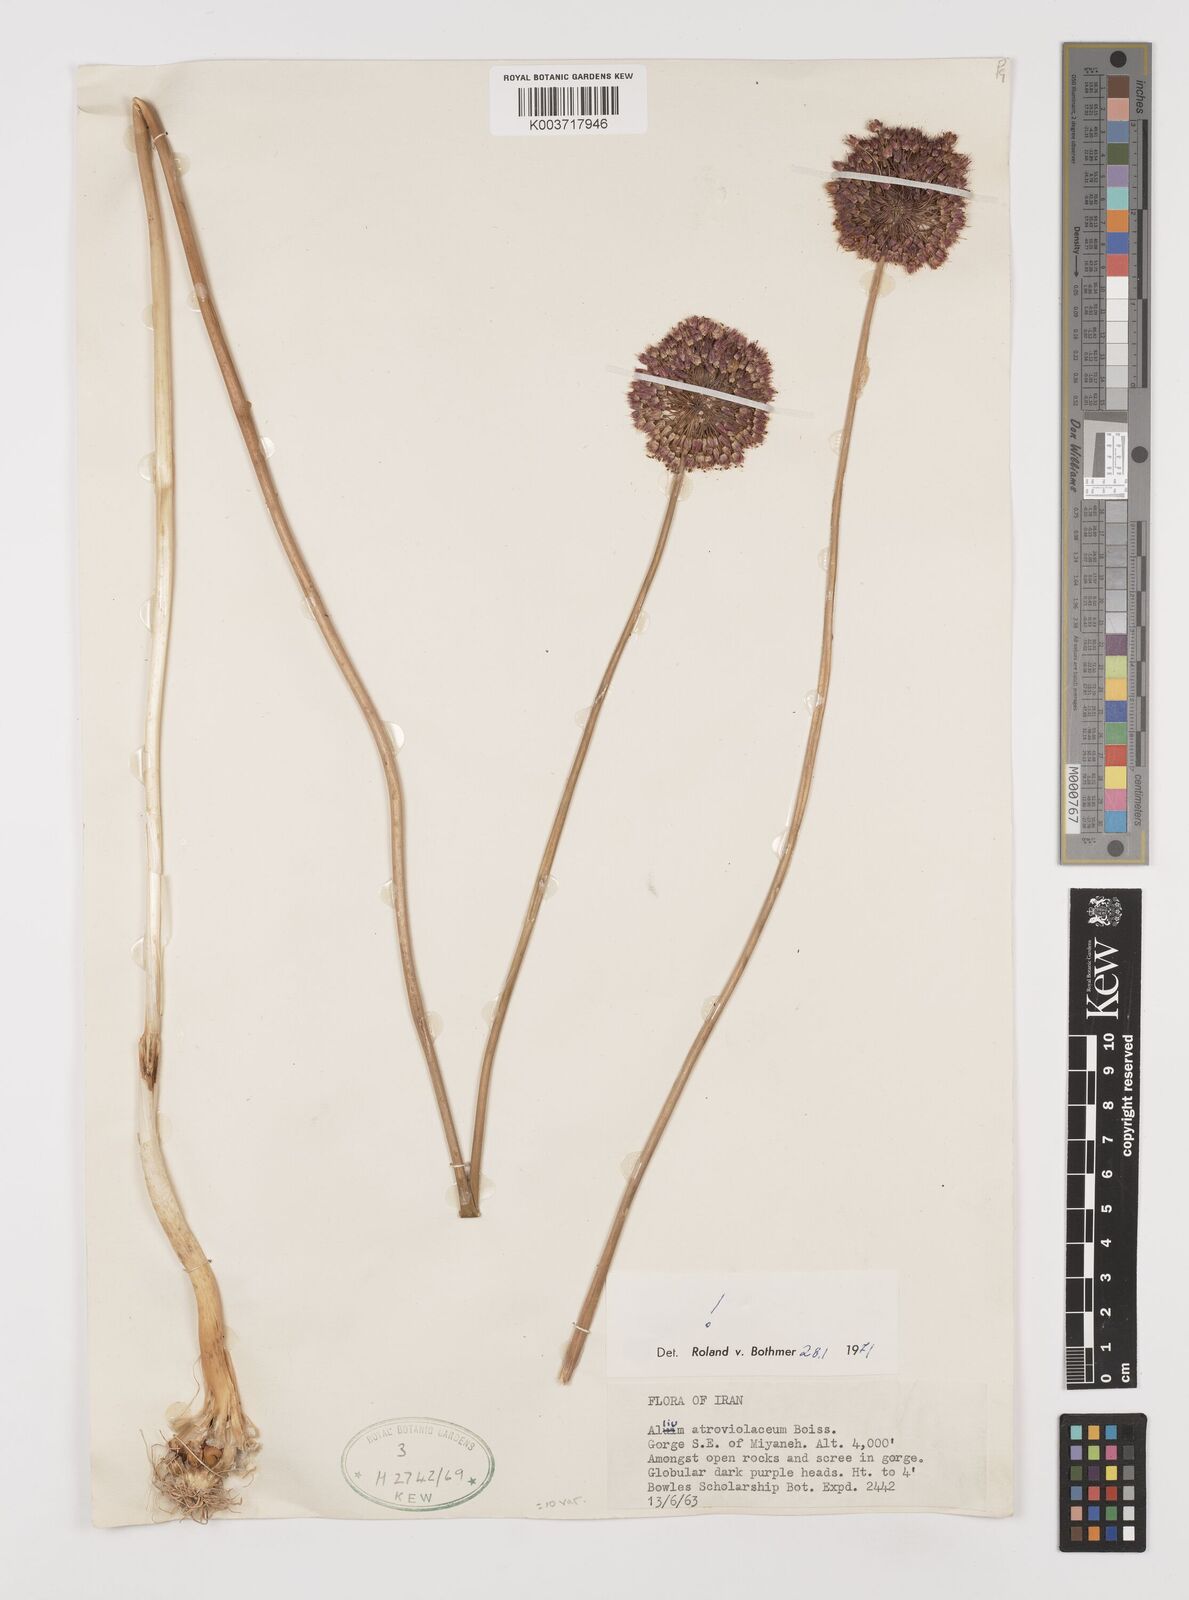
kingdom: Plantae
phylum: Tracheophyta
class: Liliopsida
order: Asparagales
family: Amaryllidaceae
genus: Allium
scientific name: Allium atroviolaceum
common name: Broadleaf wild leek
